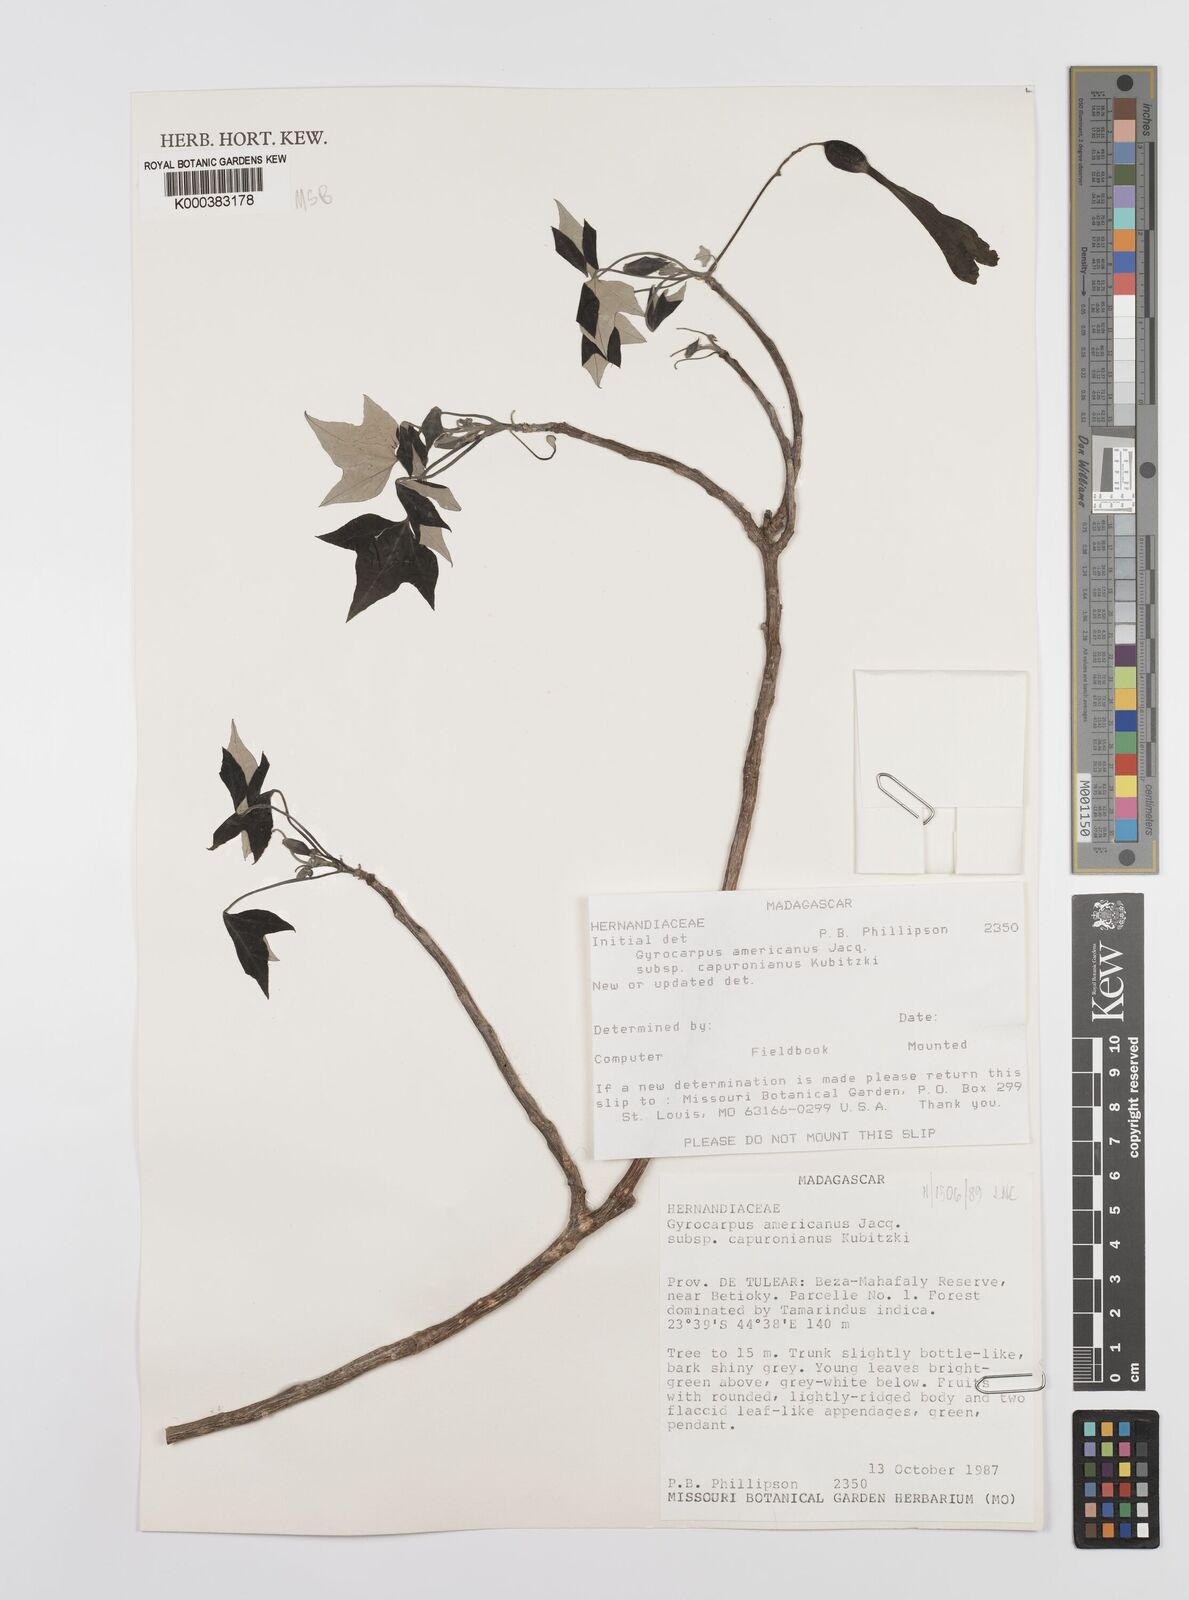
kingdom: Plantae
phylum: Tracheophyta
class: Magnoliopsida
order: Laurales
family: Hernandiaceae
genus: Gyrocarpus
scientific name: Gyrocarpus americanus
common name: Gyro damson
